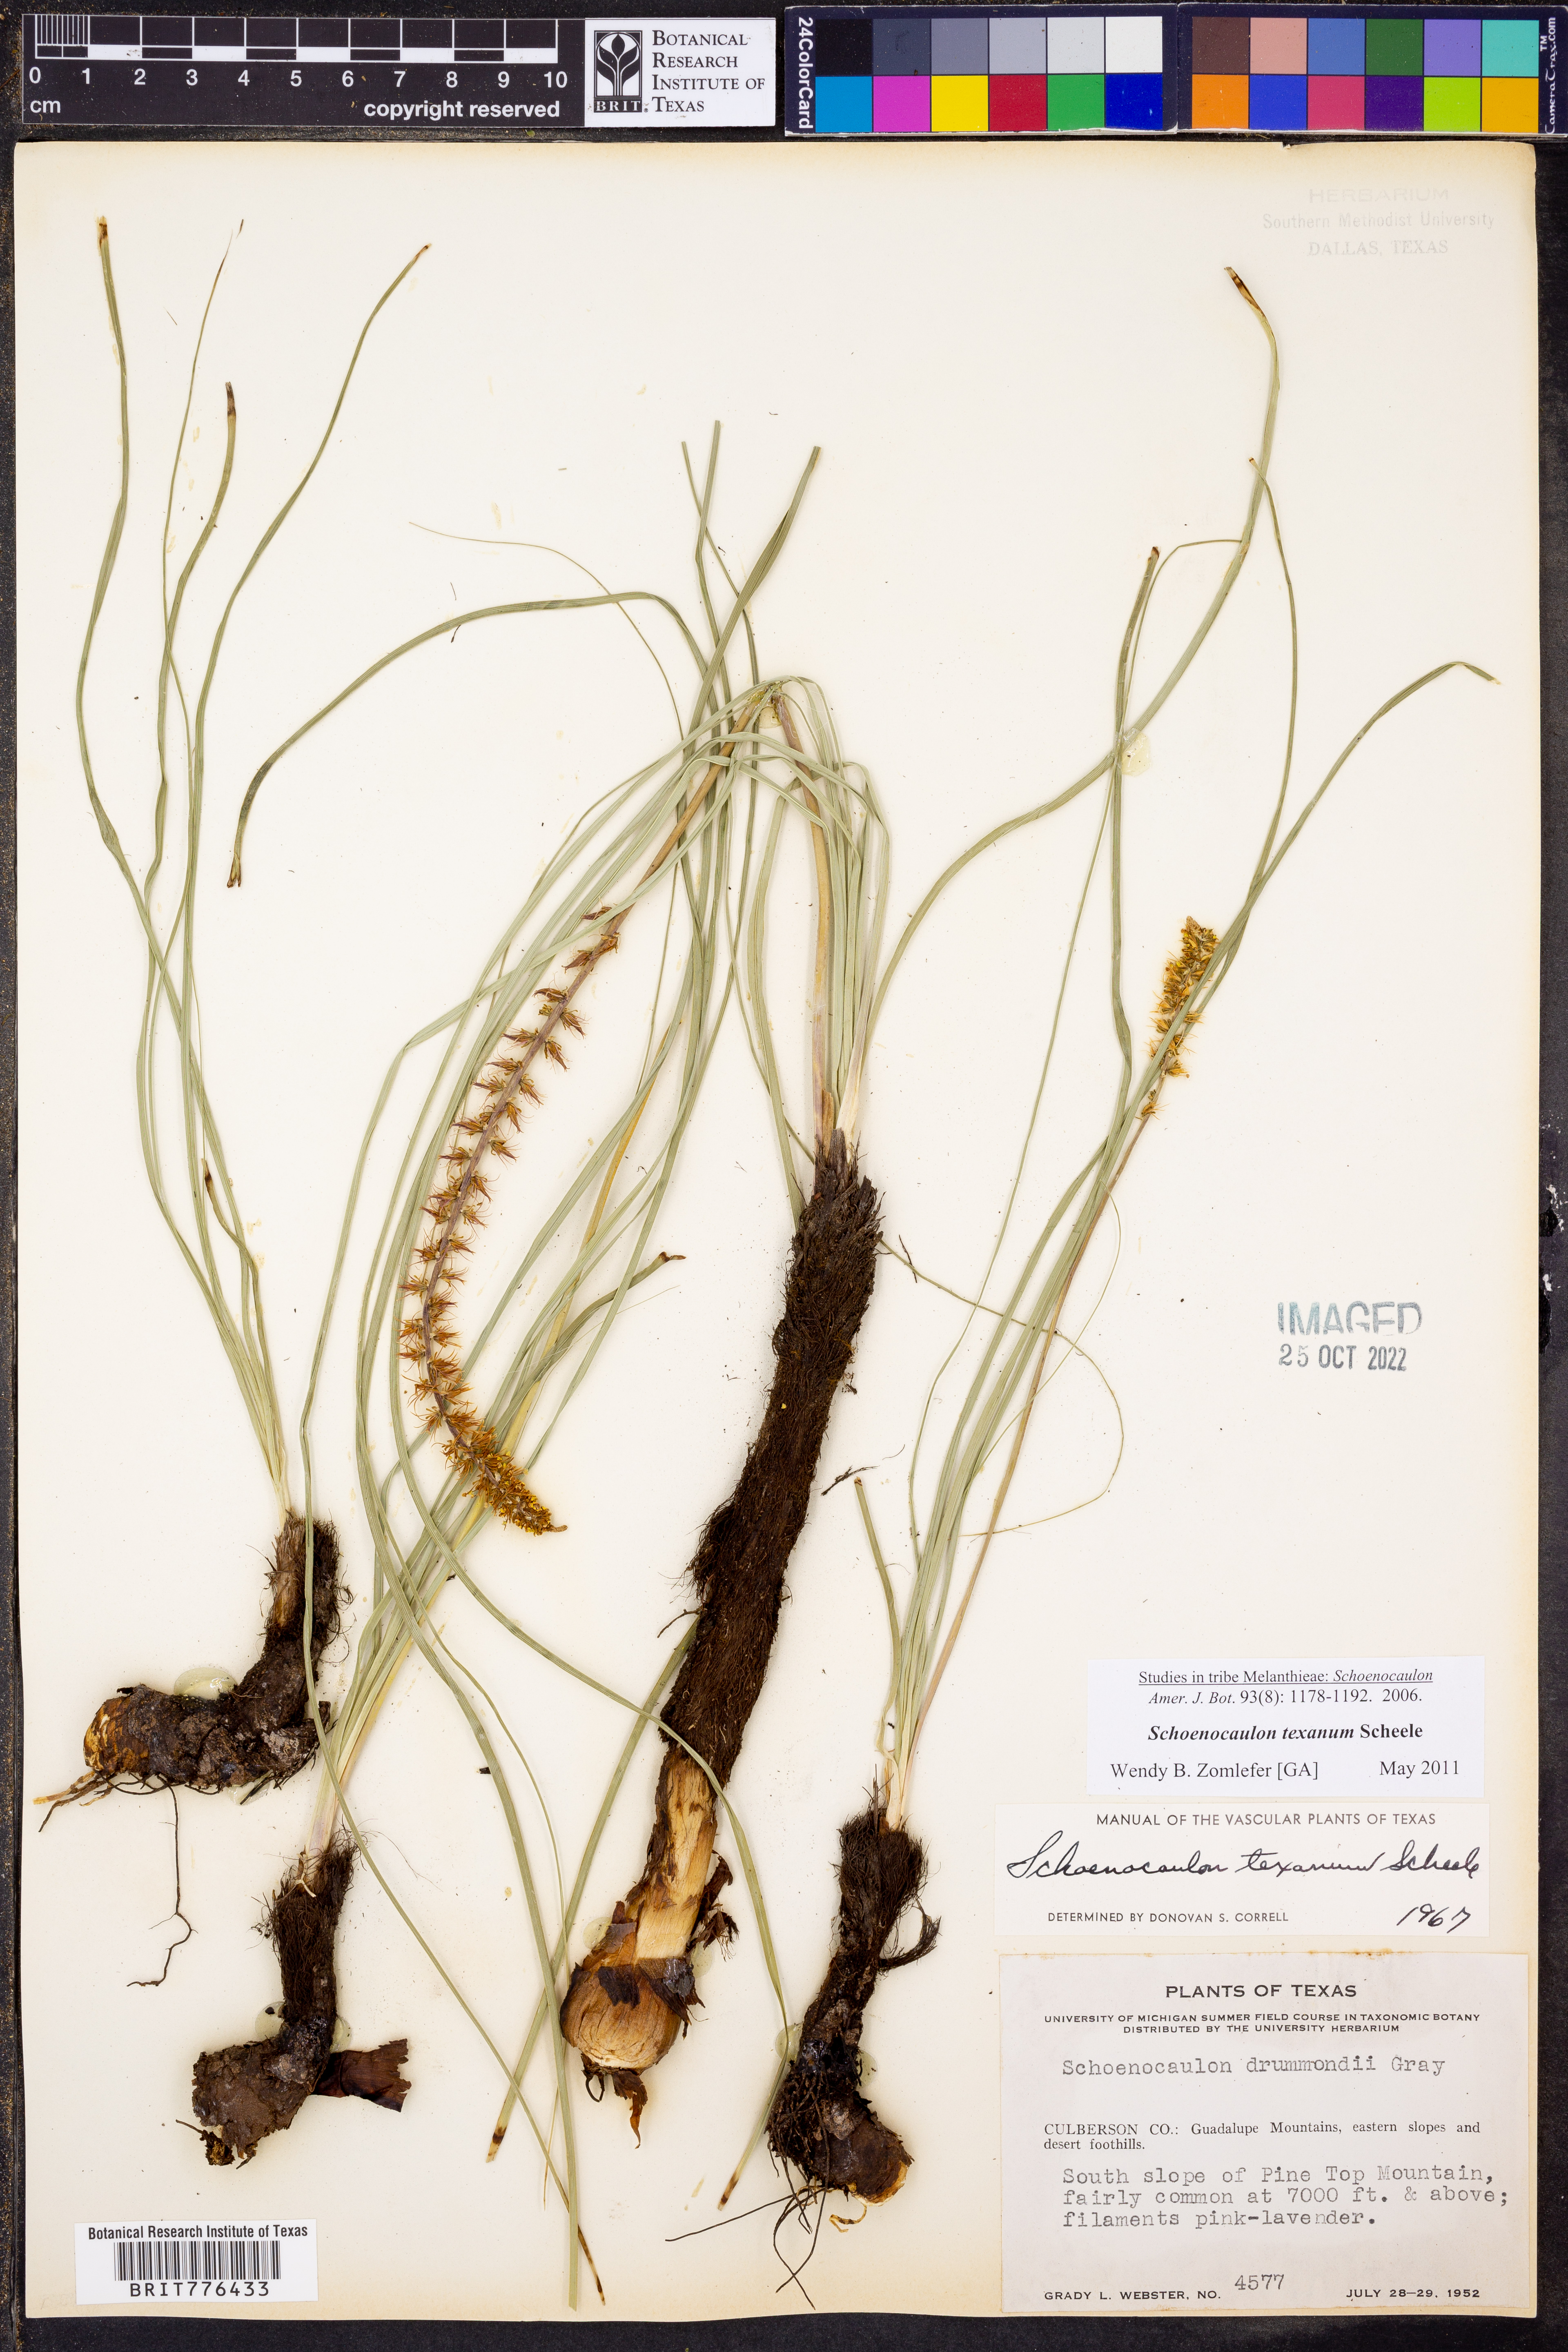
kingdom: Plantae
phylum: Tracheophyta
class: Liliopsida
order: Liliales
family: Melanthiaceae
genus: Schoenocaulon
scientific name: Schoenocaulon texanum
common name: Texas feather-shank
